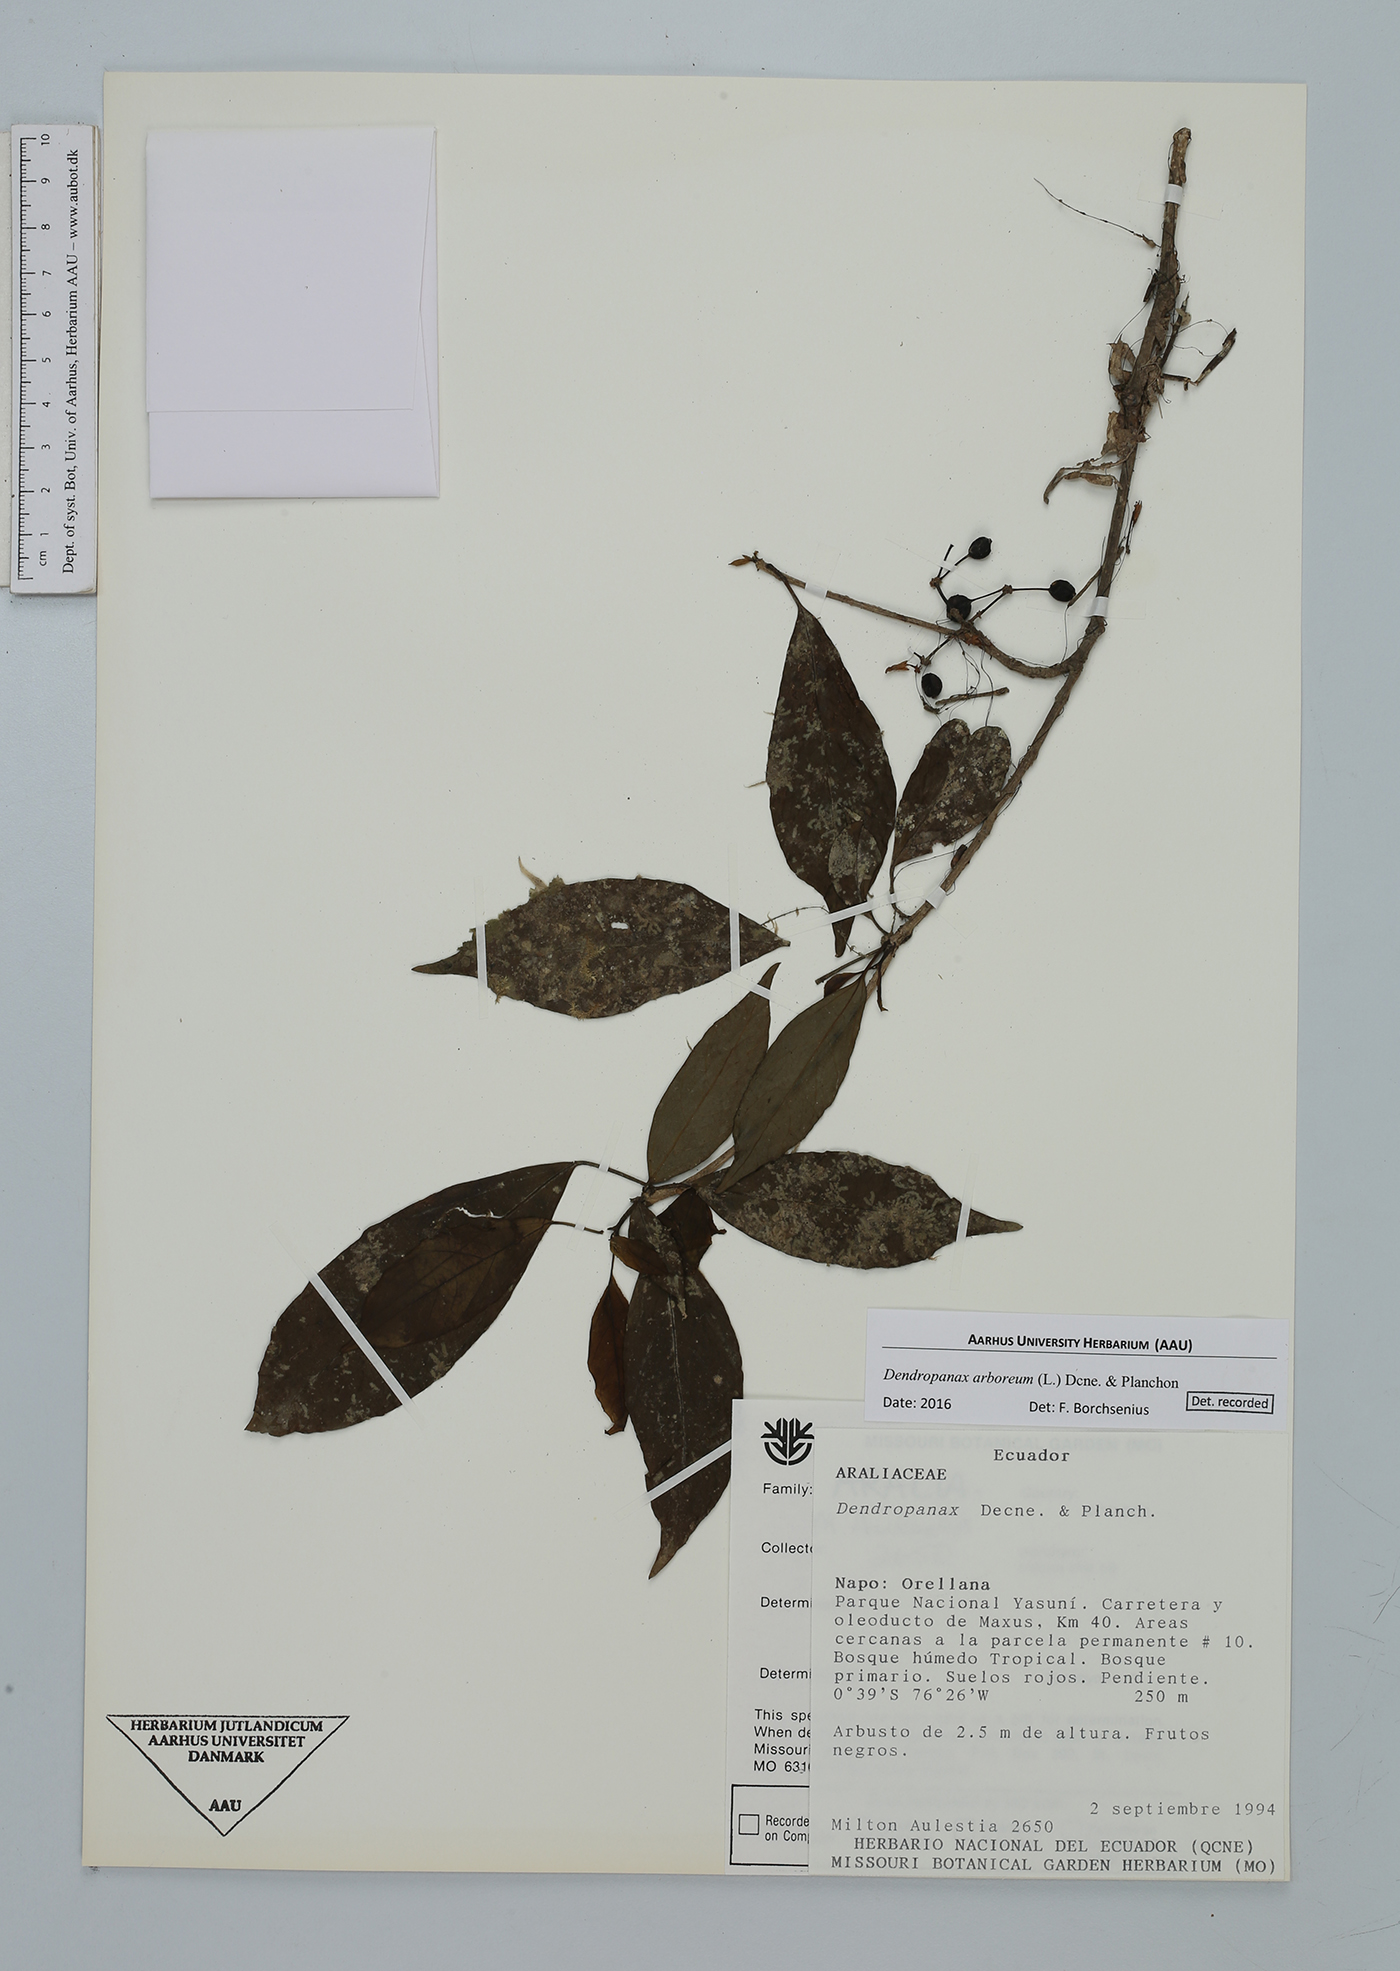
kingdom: Plantae
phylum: Tracheophyta
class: Magnoliopsida
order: Apiales
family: Araliaceae
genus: Dendropanax
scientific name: Dendropanax arboreus
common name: Potato-wood
